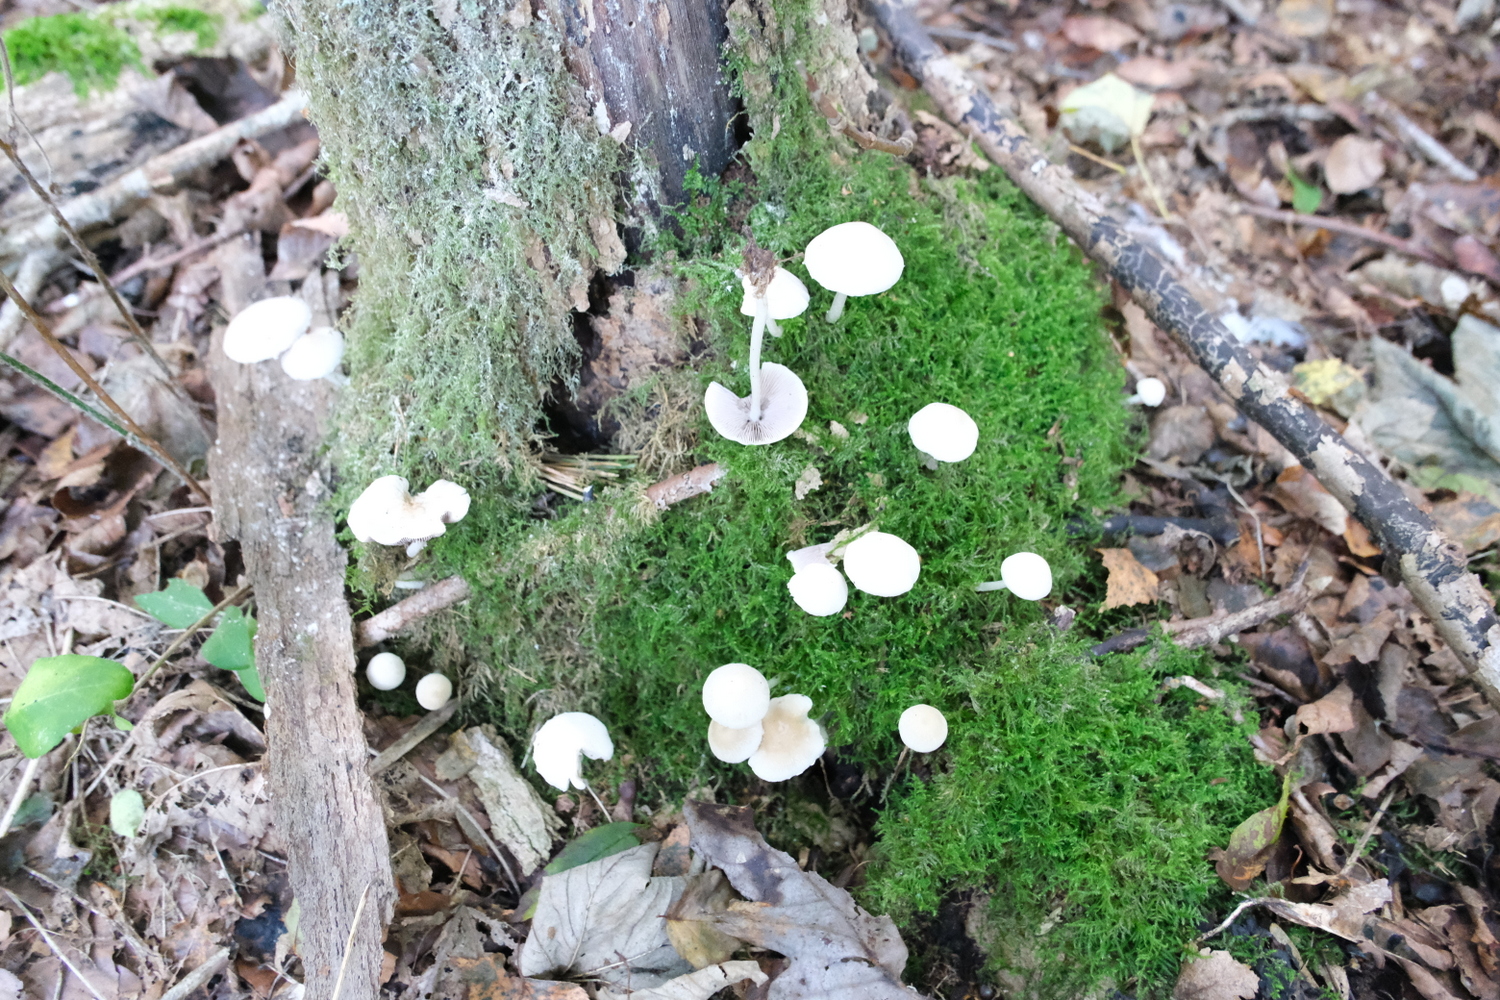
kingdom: Fungi
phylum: Basidiomycota
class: Agaricomycetes
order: Agaricales
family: Psathyrellaceae
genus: Candolleomyces
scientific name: Candolleomyces candolleanus
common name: Candolles mørkhat
